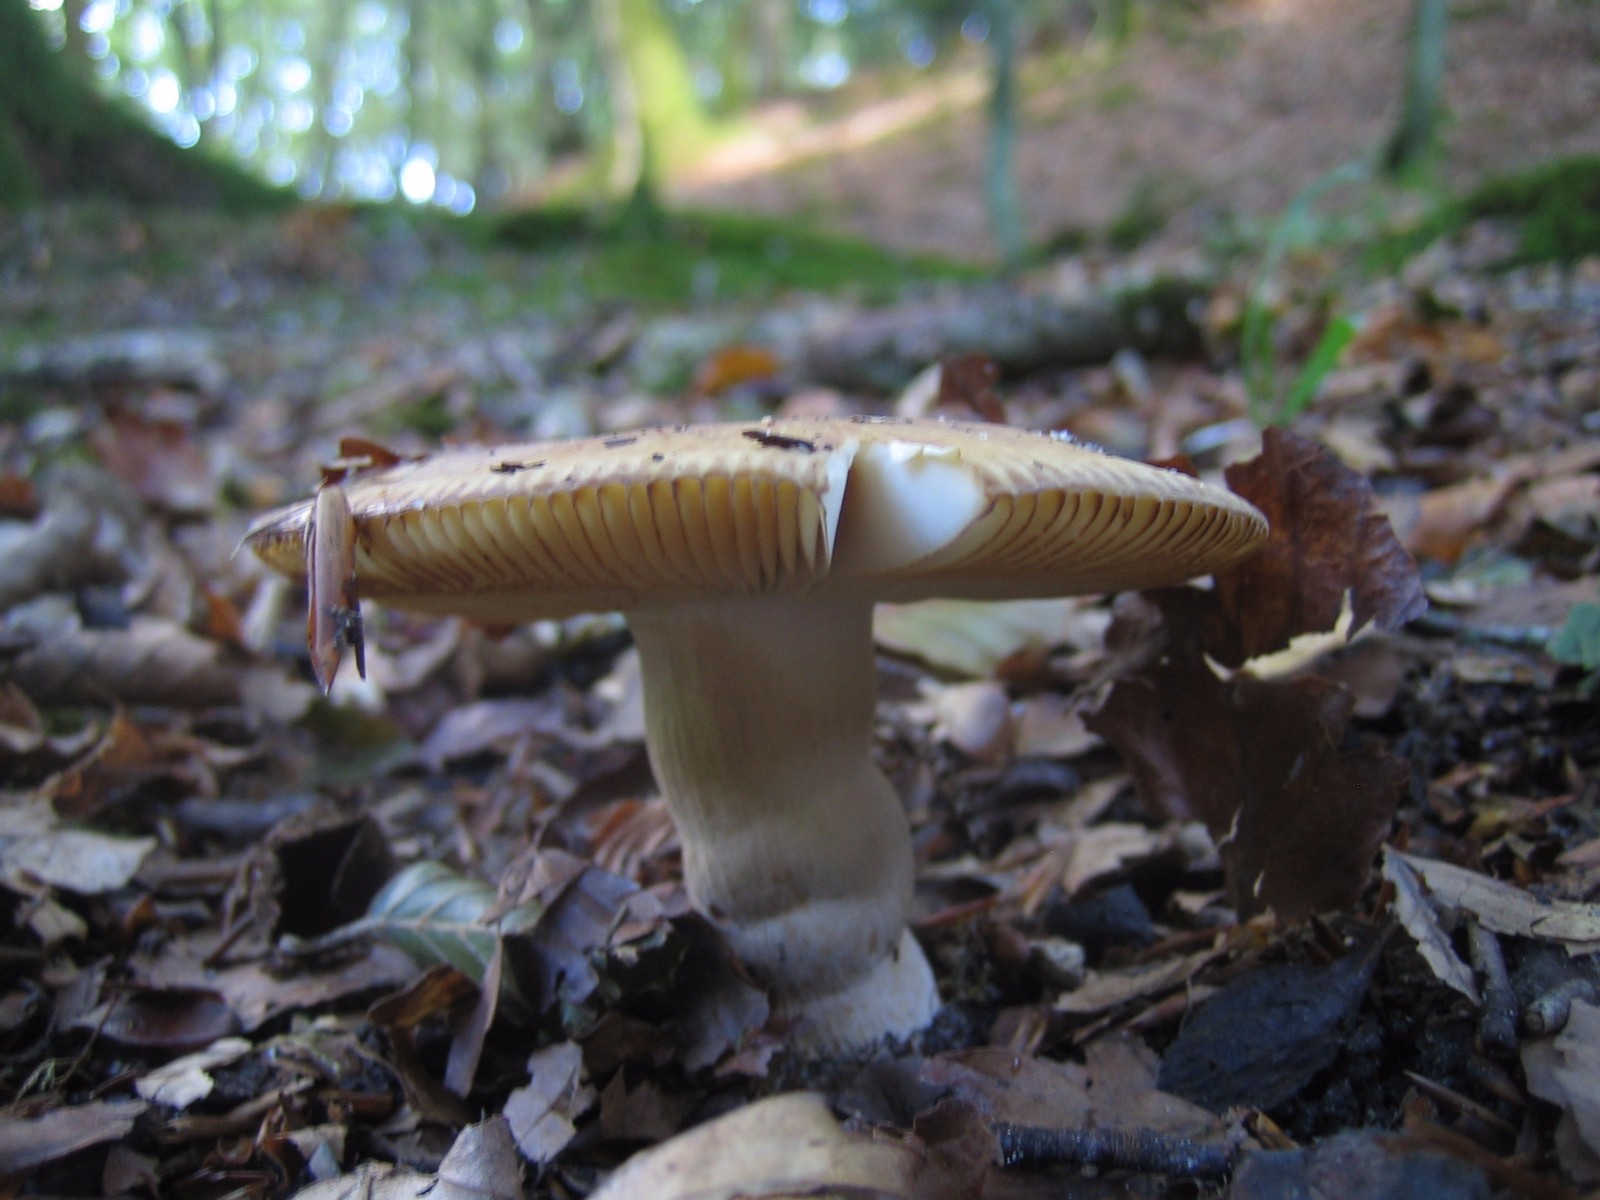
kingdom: Fungi
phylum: Basidiomycota
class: Agaricomycetes
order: Russulales
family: Russulaceae
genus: Russula
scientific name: Russula foetens
